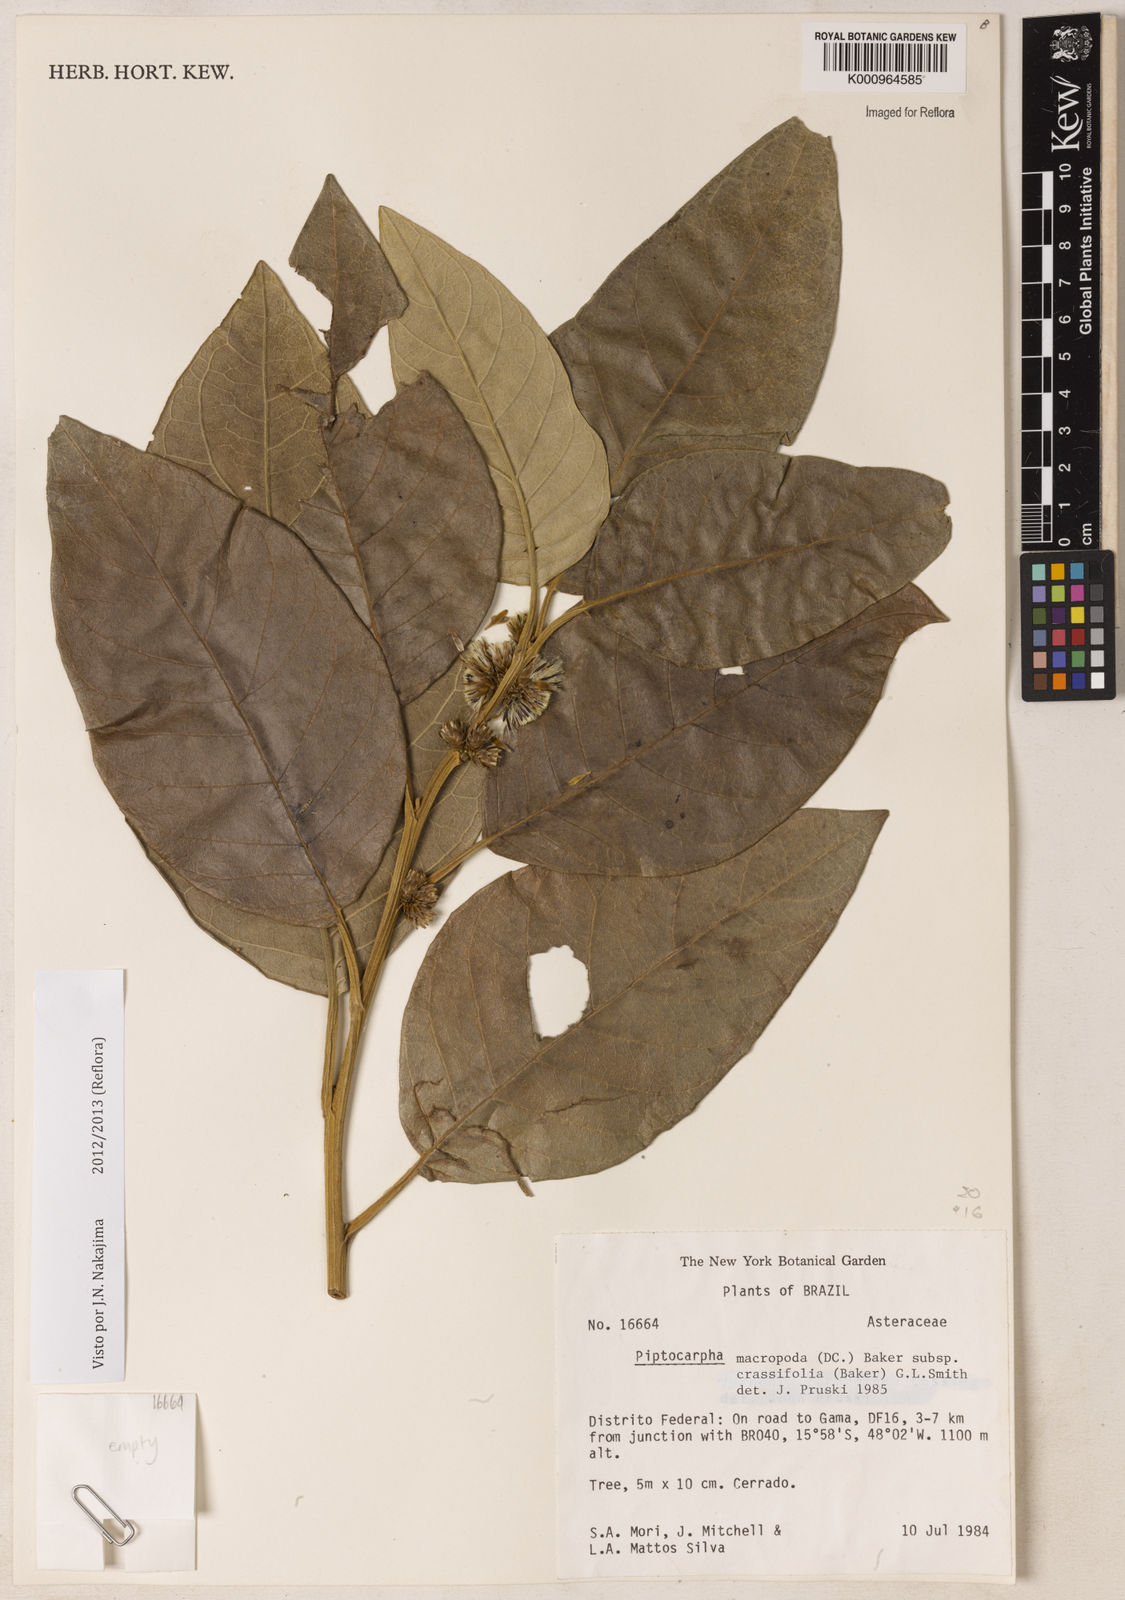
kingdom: Plantae
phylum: Tracheophyta
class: Magnoliopsida
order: Asterales
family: Asteraceae
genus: Piptocarpha
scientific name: Piptocarpha macropoda
